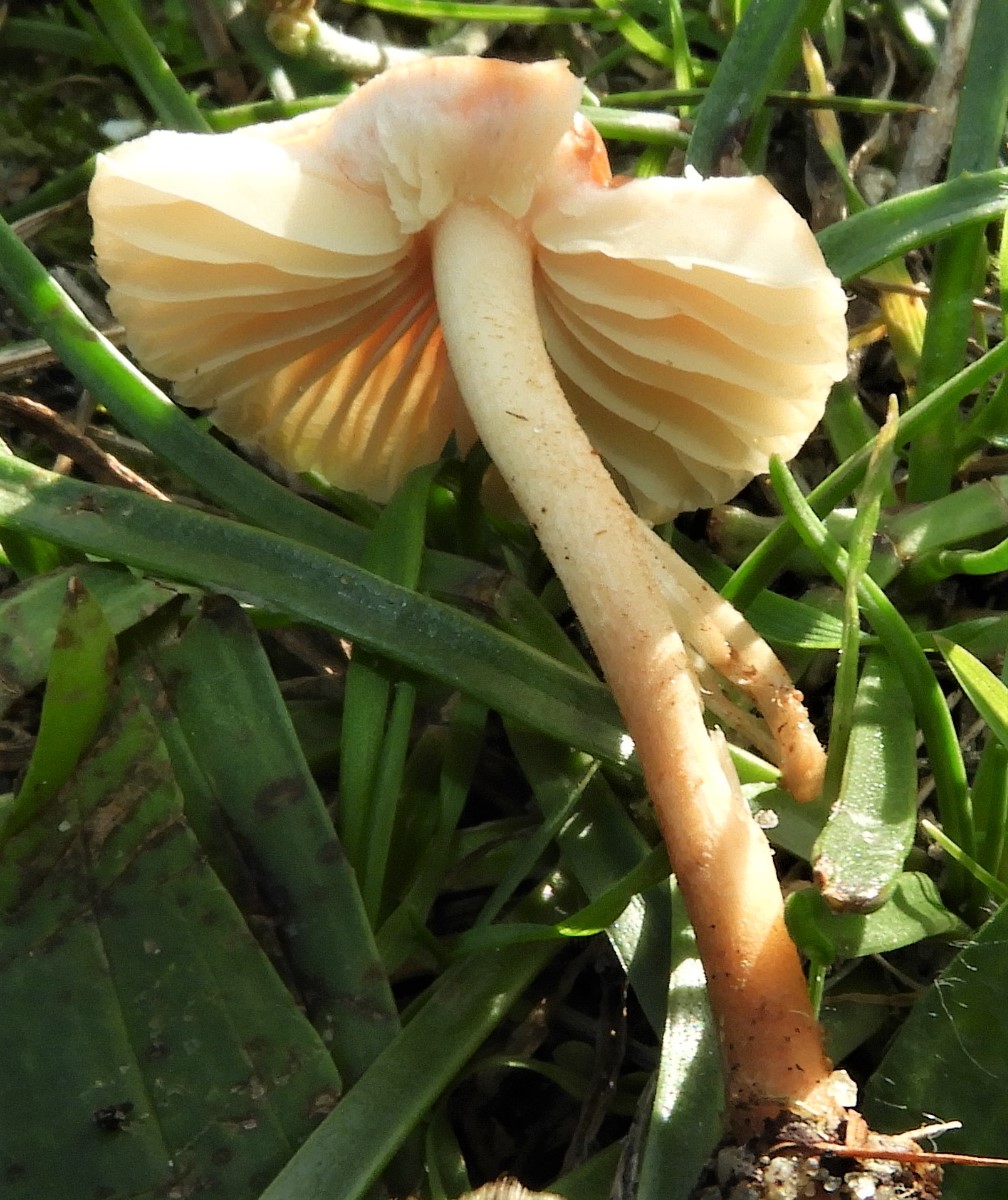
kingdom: Fungi
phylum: Basidiomycota
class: Agaricomycetes
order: Agaricales
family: Marasmiaceae
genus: Marasmius
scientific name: Marasmius oreades
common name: elledans-bruskhat
